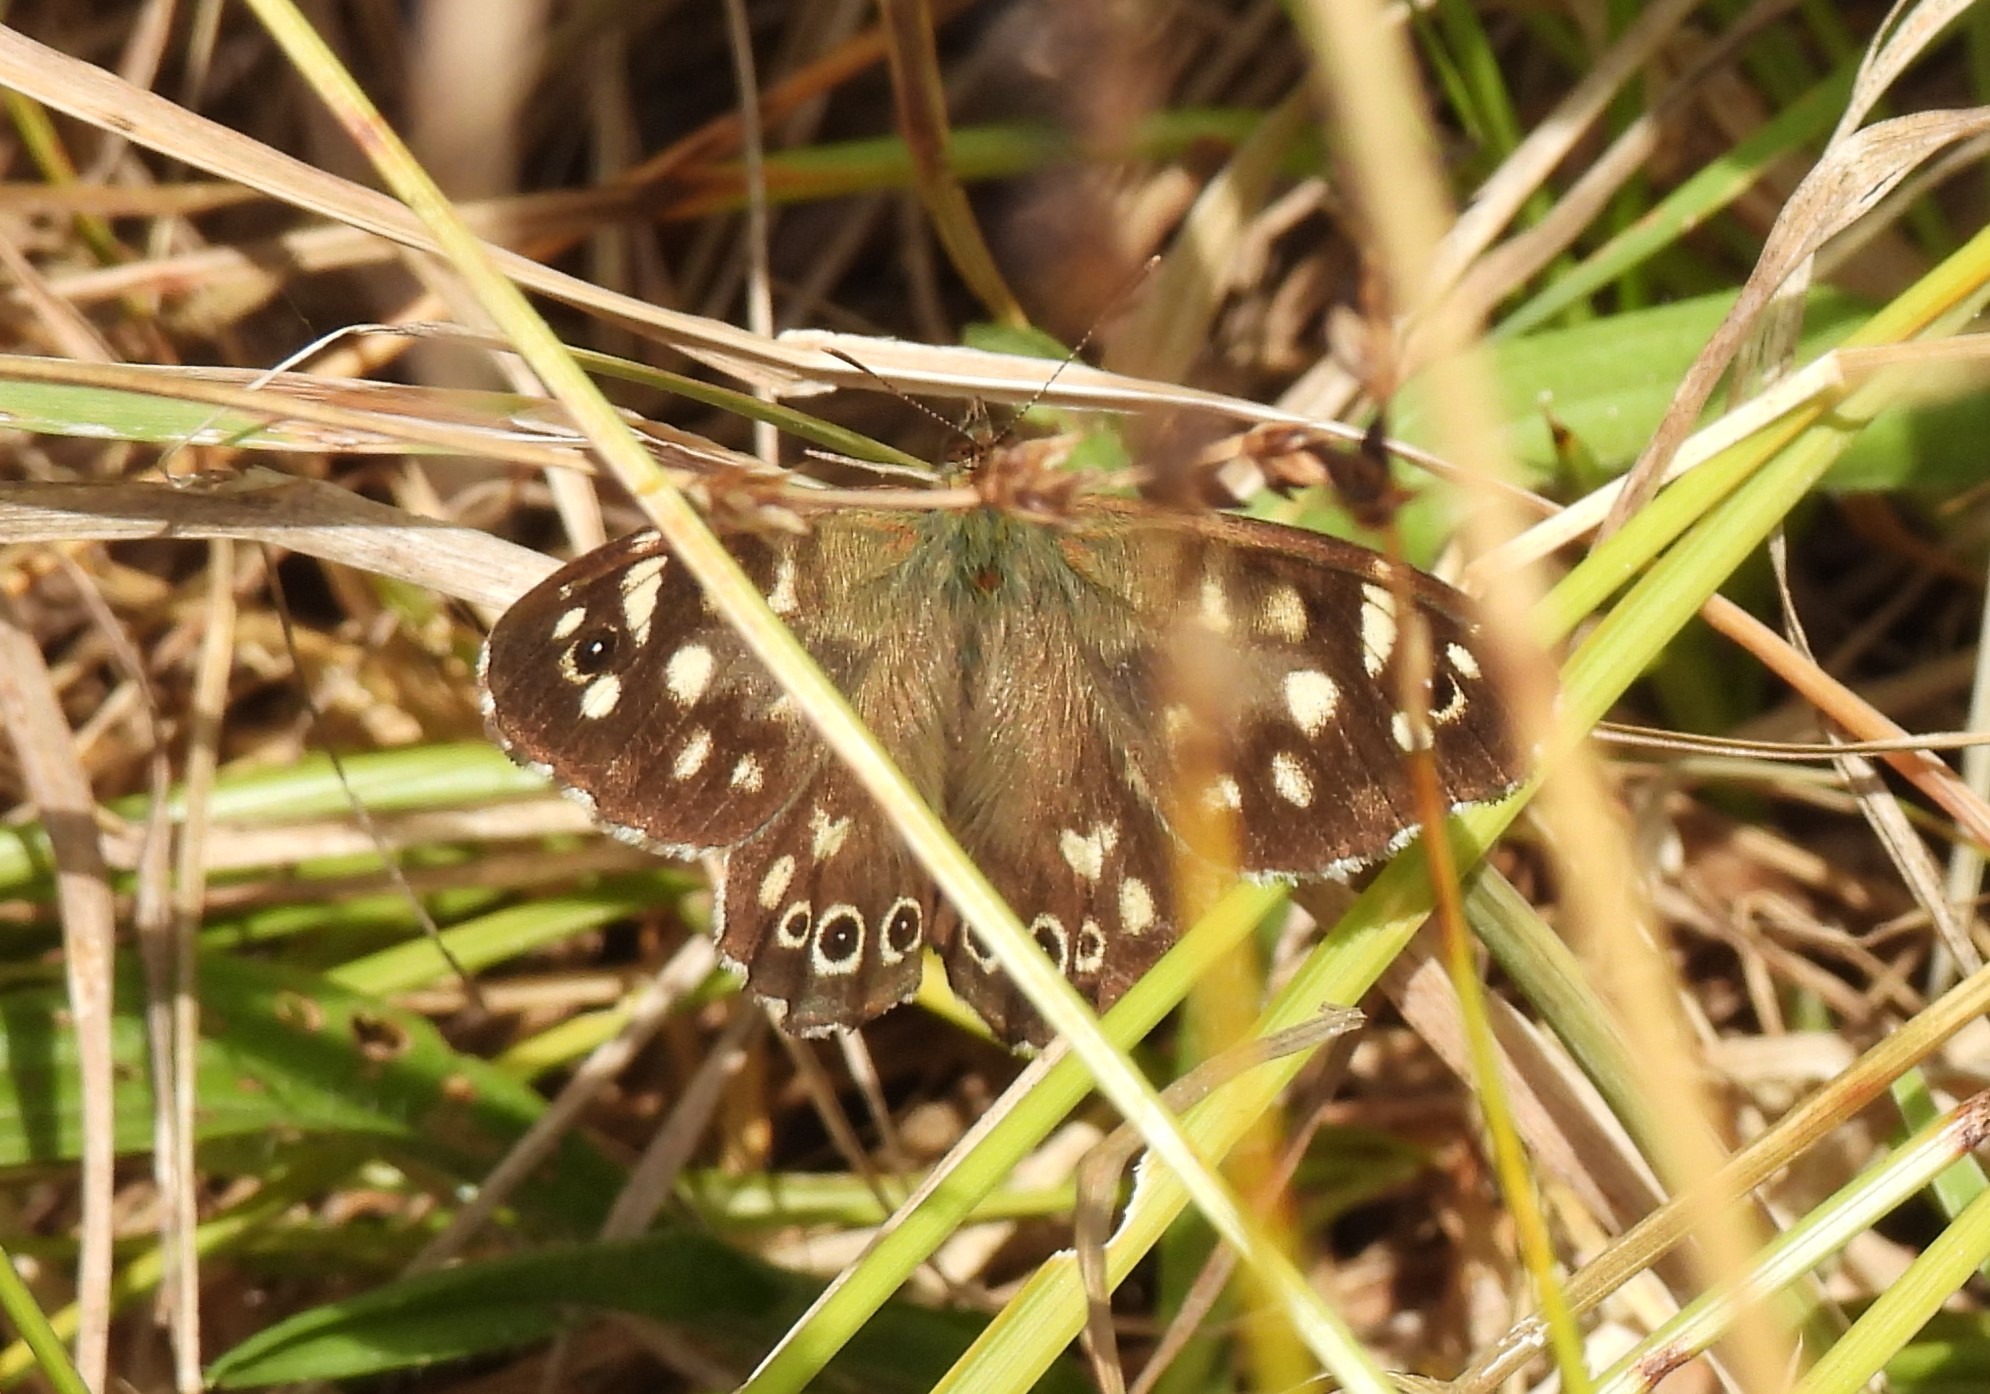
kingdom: Animalia
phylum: Arthropoda
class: Insecta
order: Lepidoptera
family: Nymphalidae
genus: Pararge
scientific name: Pararge aegeria
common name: Skovrandøje
